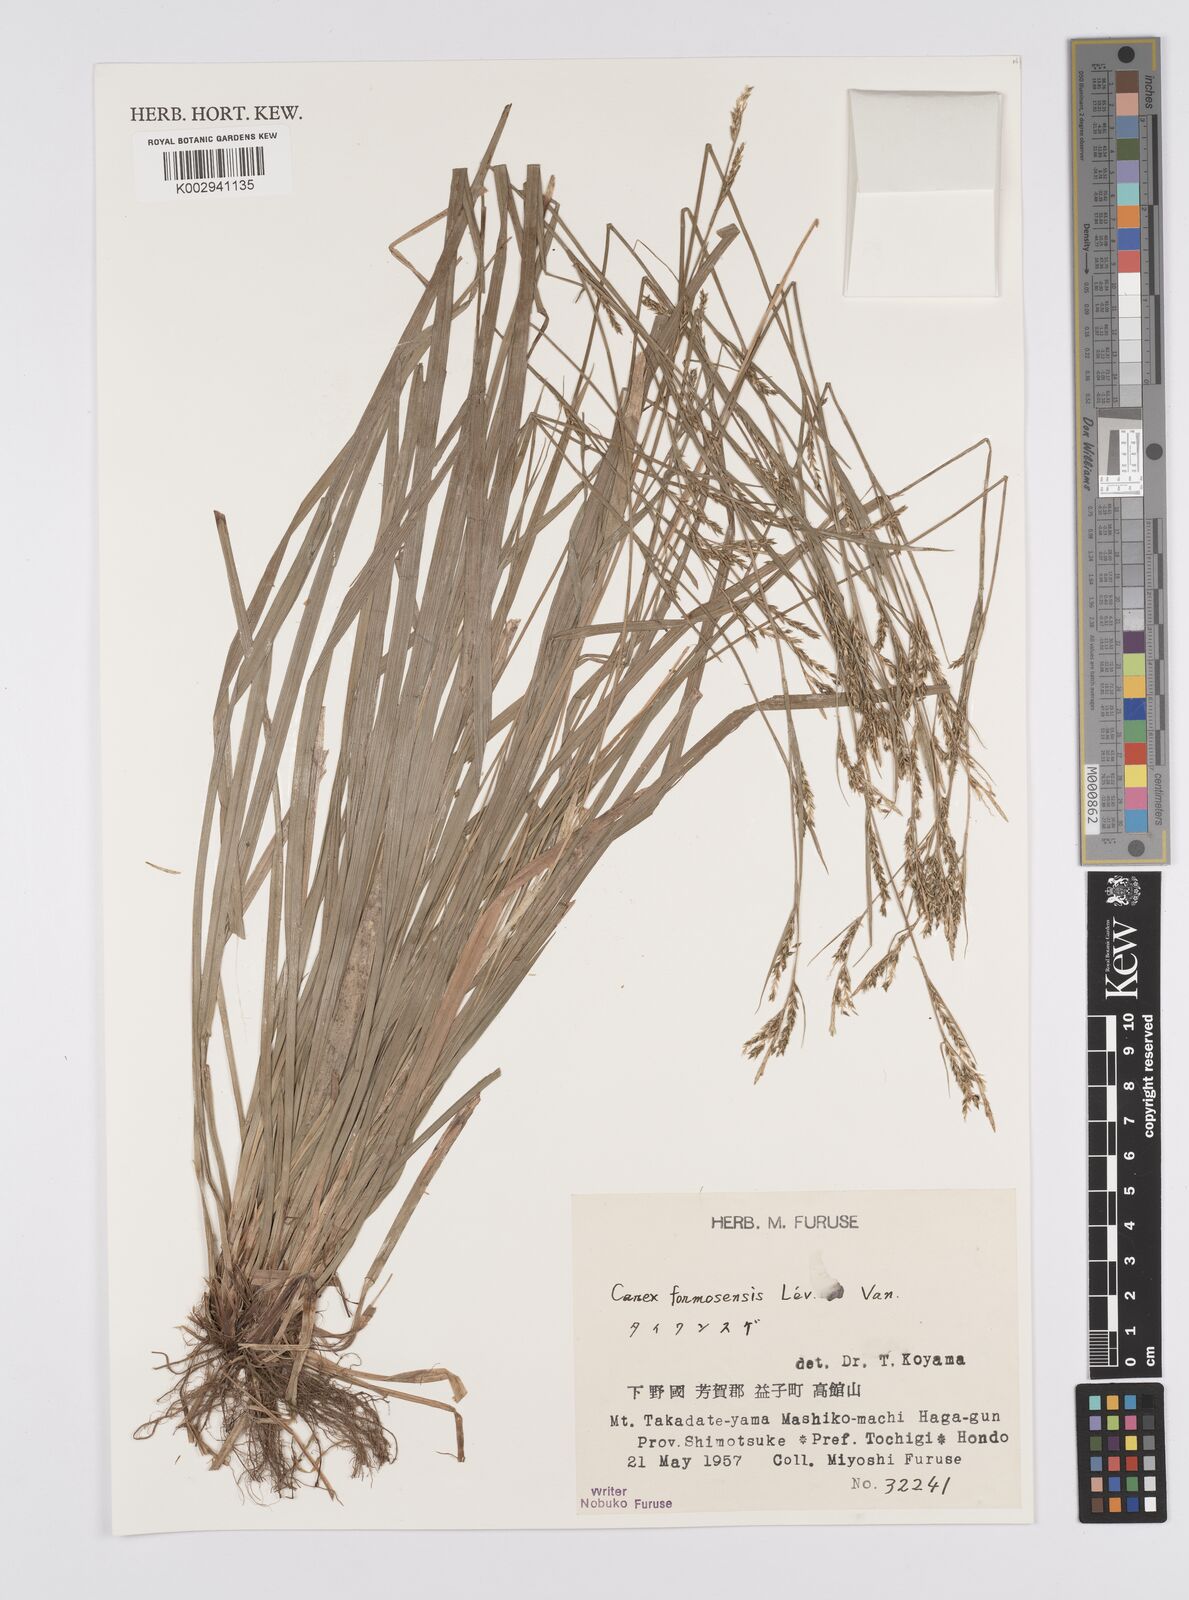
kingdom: Plantae
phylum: Tracheophyta
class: Liliopsida
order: Poales
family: Cyperaceae
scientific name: Cyperaceae
